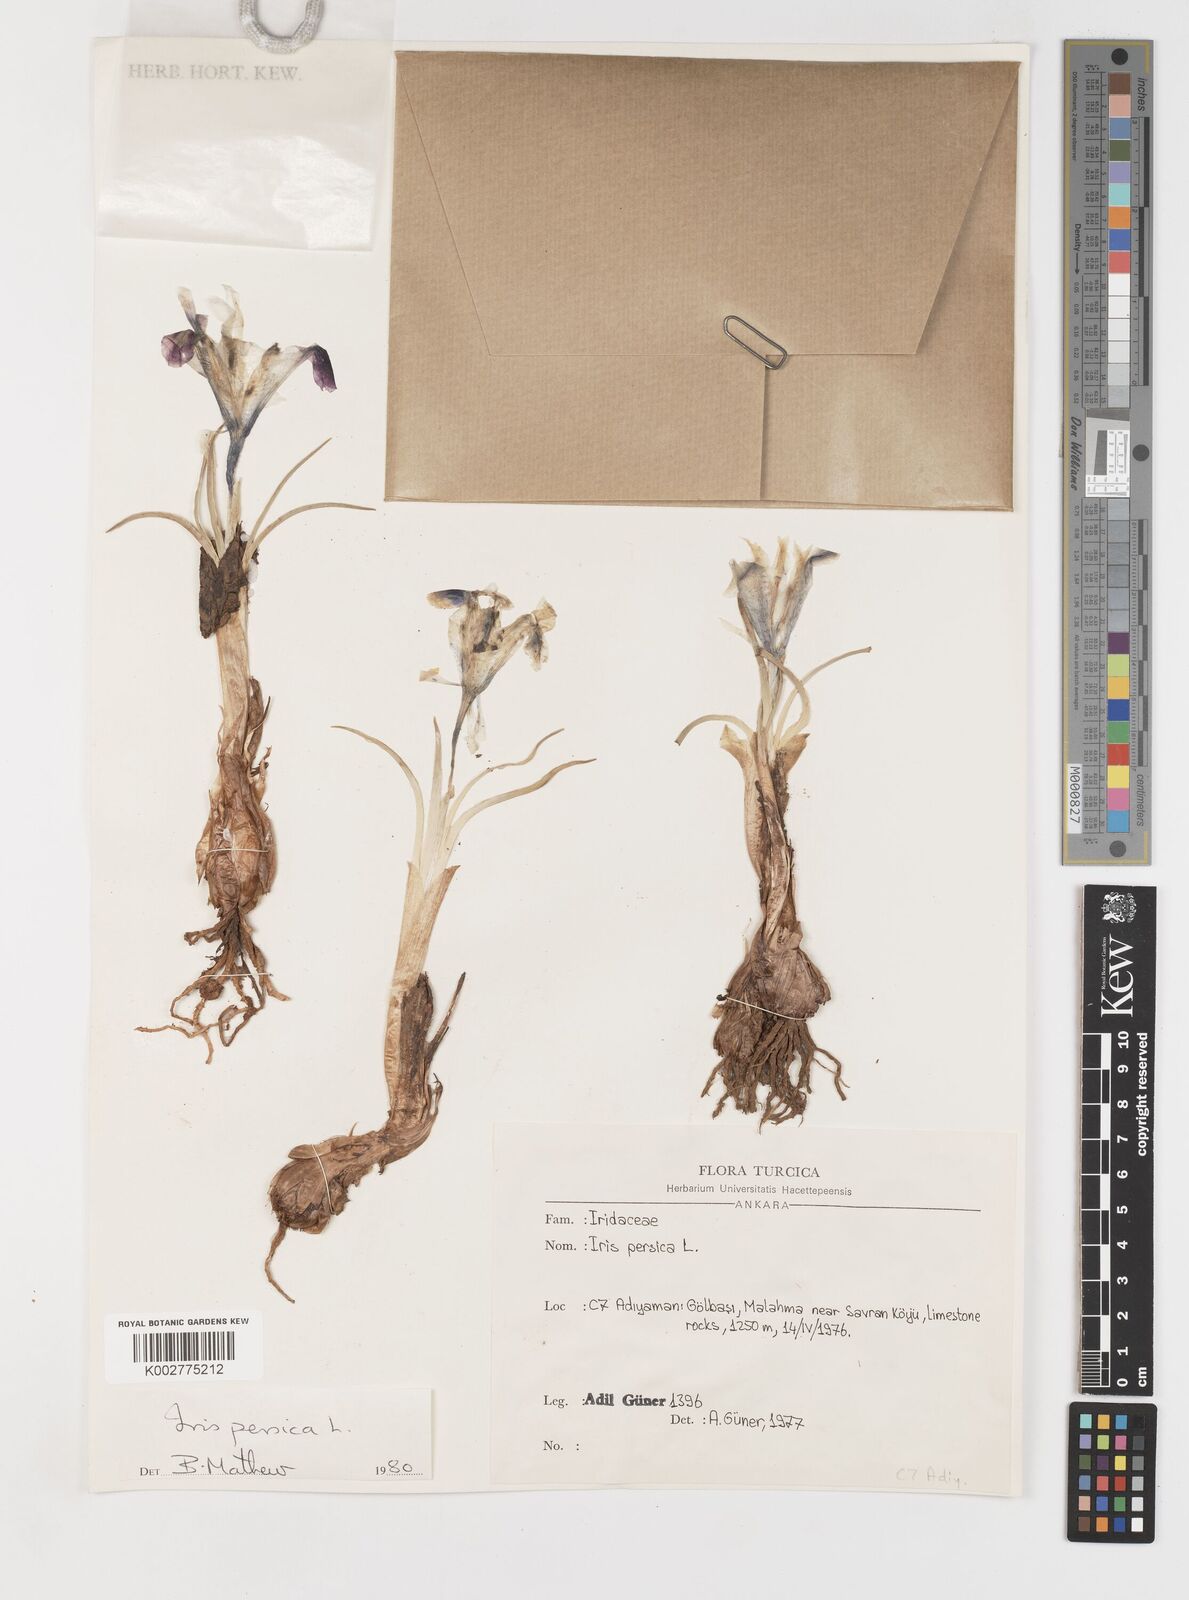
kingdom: Plantae
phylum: Tracheophyta
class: Liliopsida
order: Asparagales
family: Iridaceae
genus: Iris
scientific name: Iris persica
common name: Persian iris
